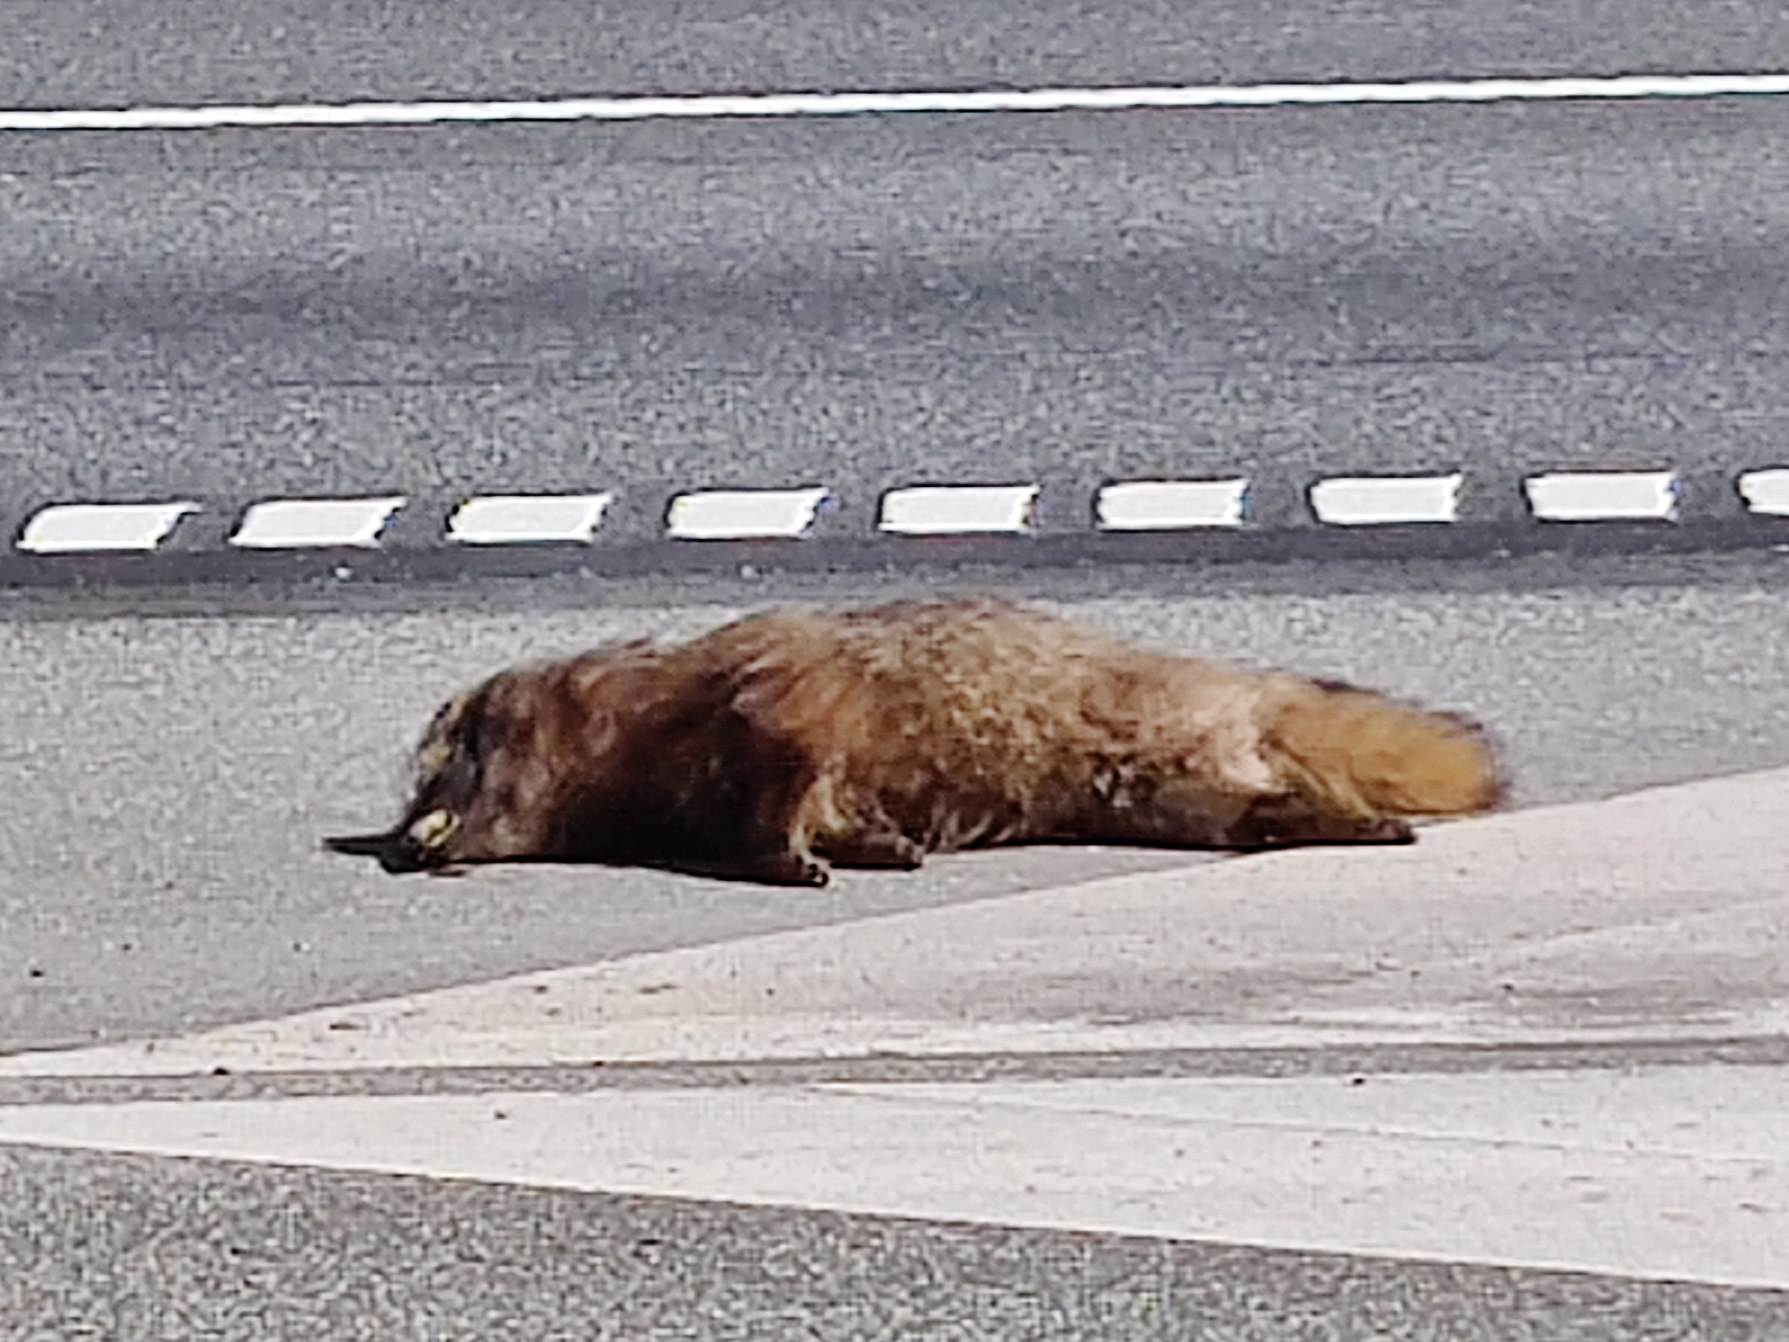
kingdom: Animalia
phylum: Chordata
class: Mammalia
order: Carnivora
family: Canidae
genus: Nyctereutes
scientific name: Nyctereutes procyonoides
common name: Mårhund
